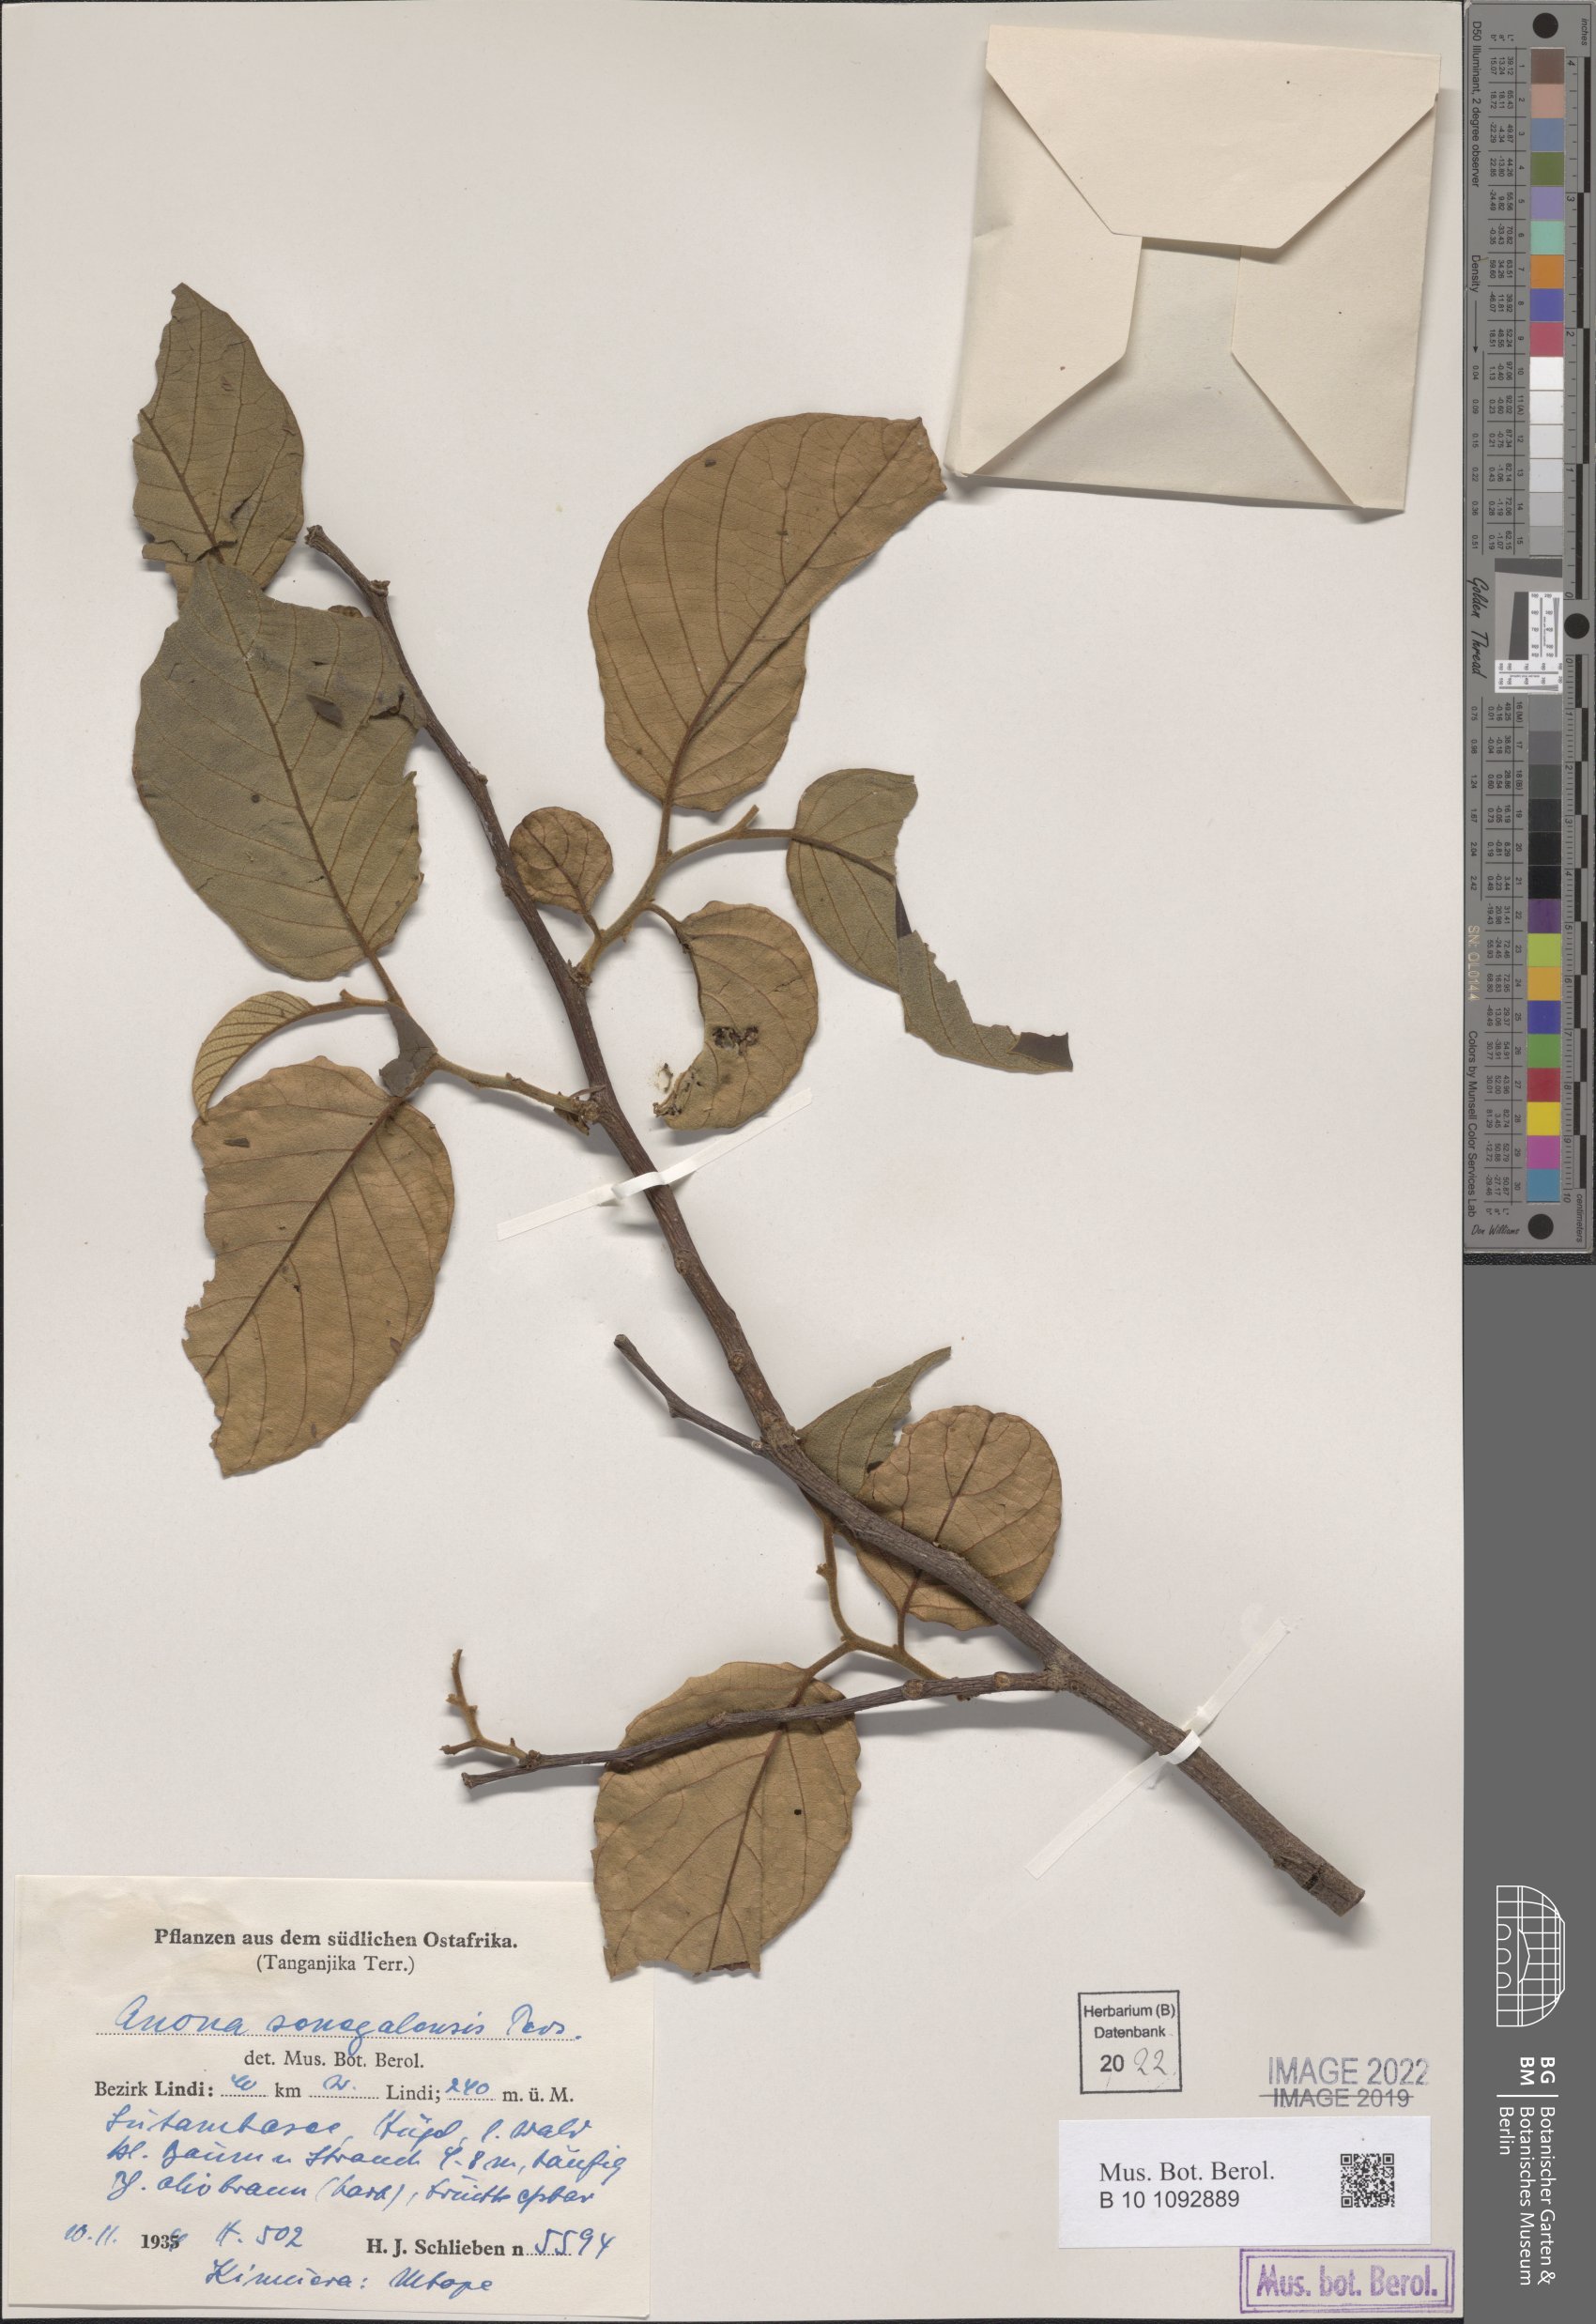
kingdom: Plantae
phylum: Tracheophyta
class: Magnoliopsida
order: Magnoliales
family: Annonaceae
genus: Annona
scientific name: Annona senegalensis
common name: Wild custard-apple
